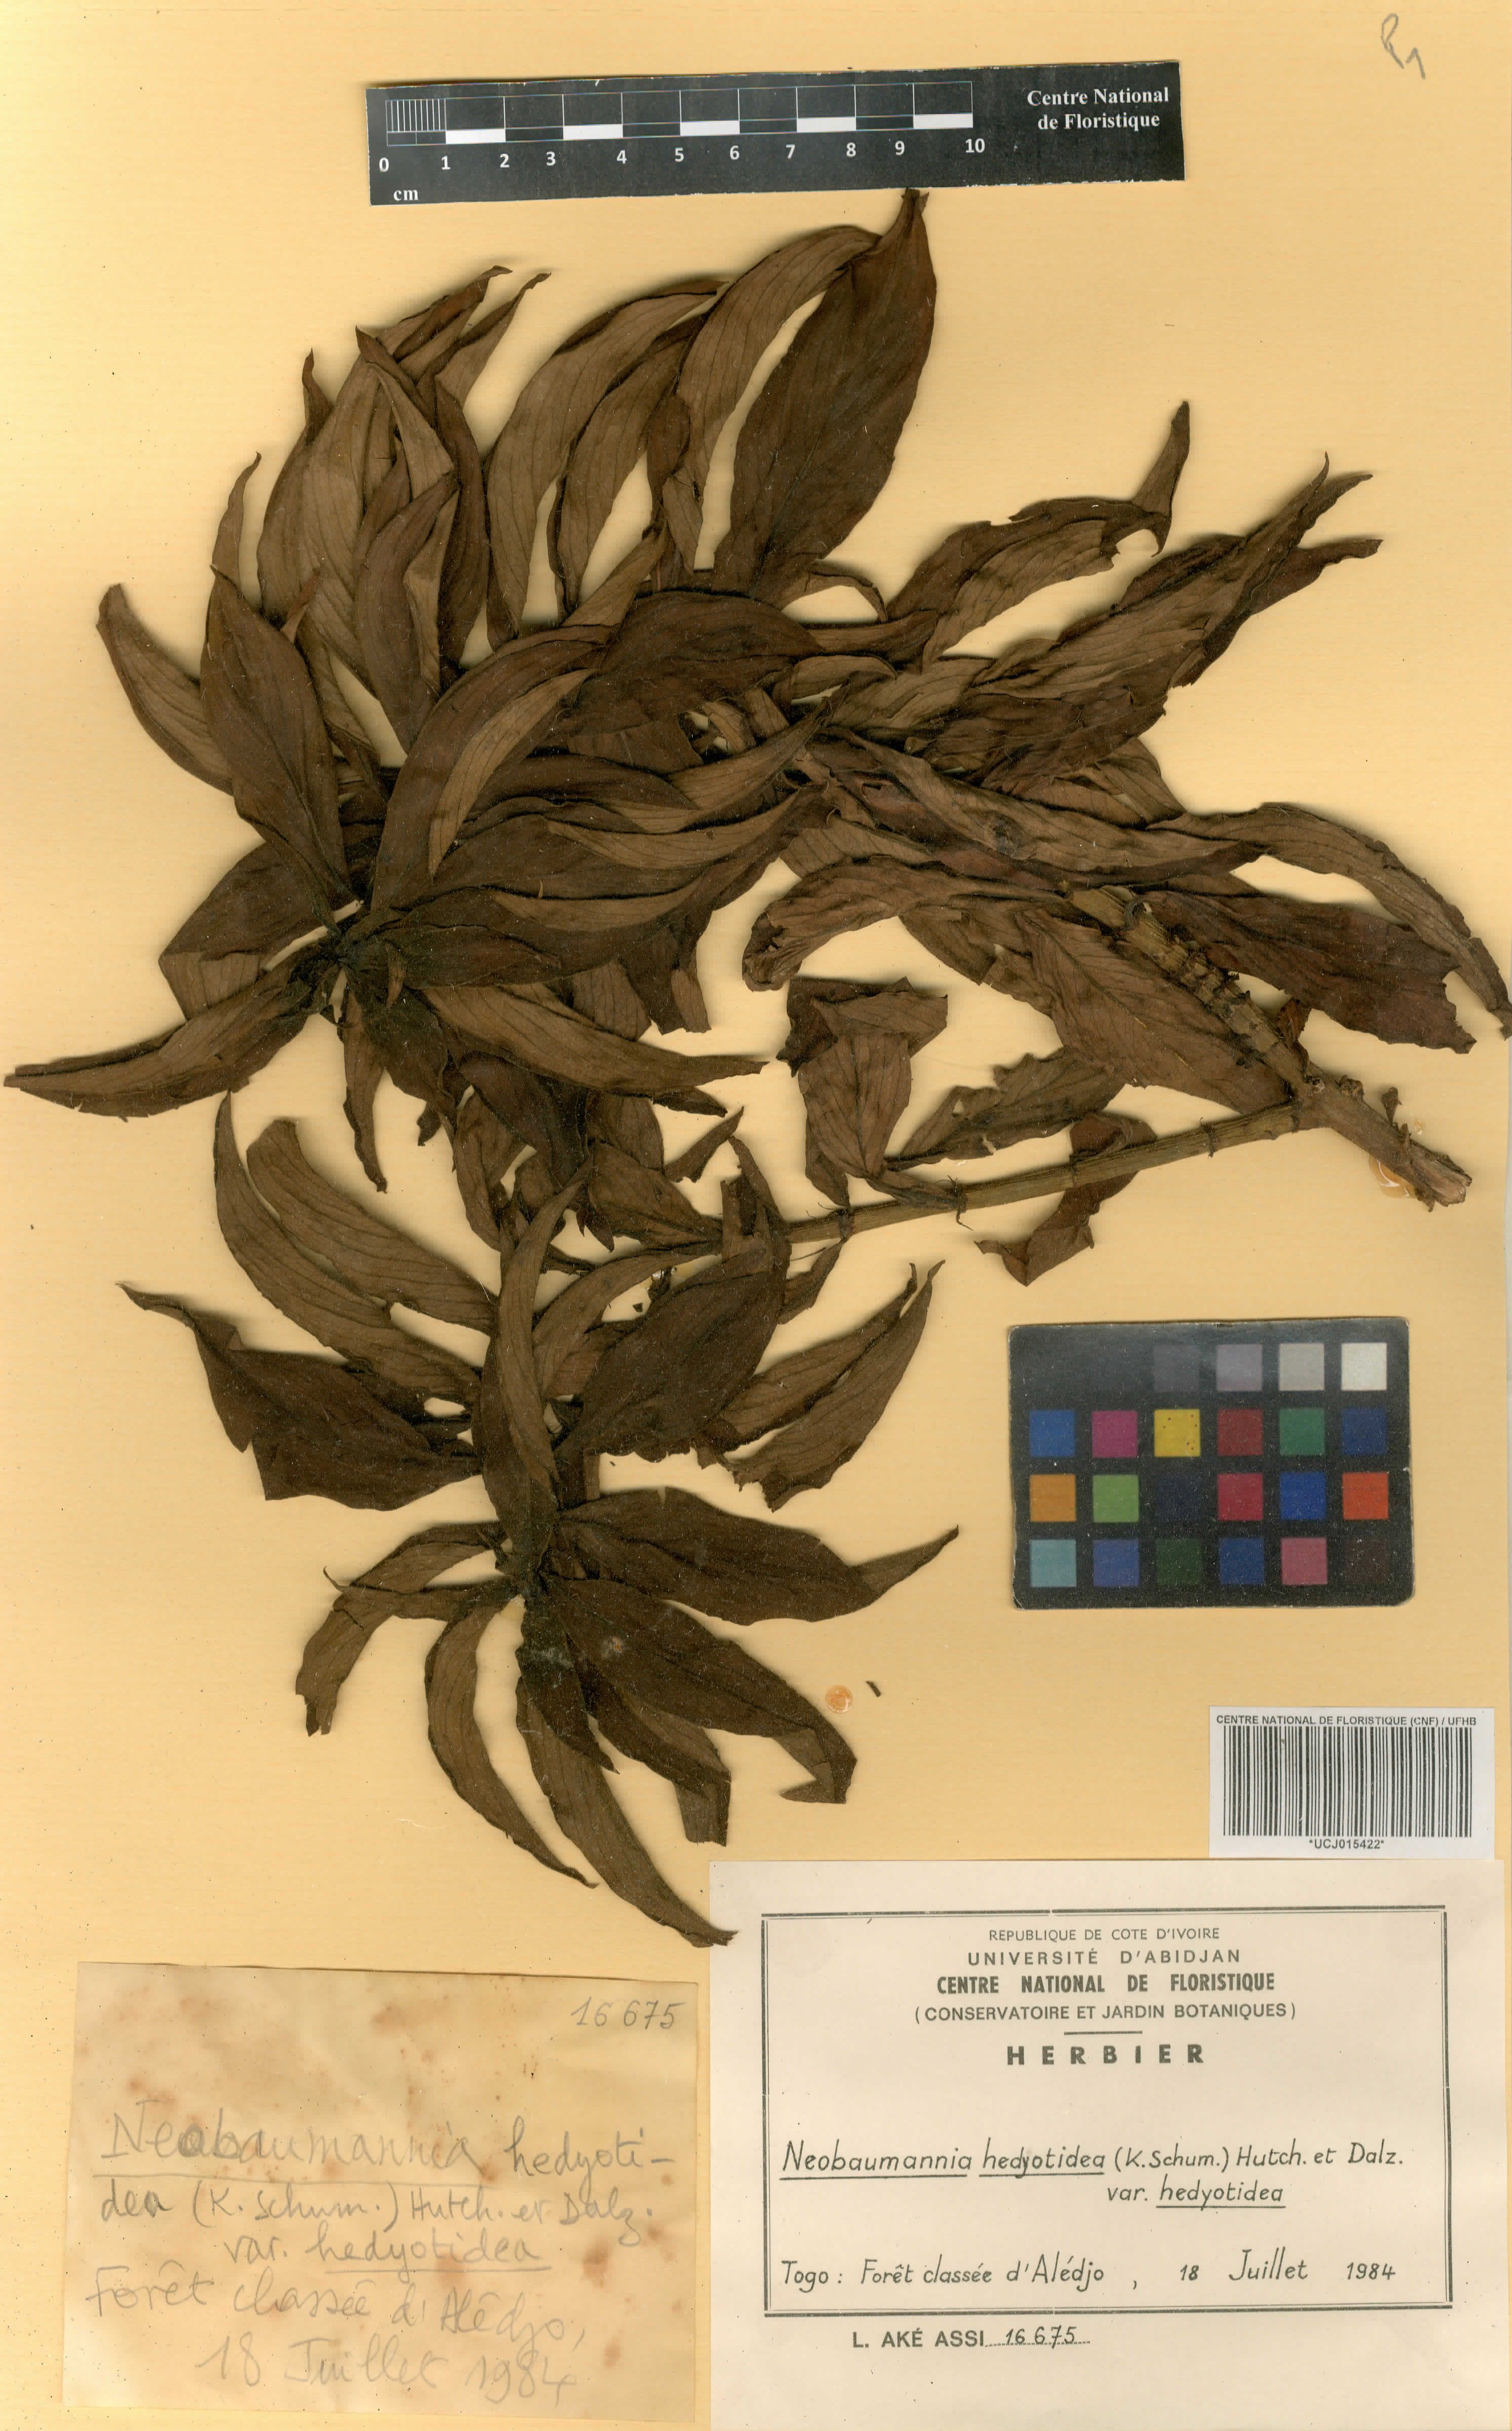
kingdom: Plantae
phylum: Tracheophyta
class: Magnoliopsida
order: Gentianales
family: Rubiaceae
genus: Knoxia
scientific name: Knoxia hedyotoidea
